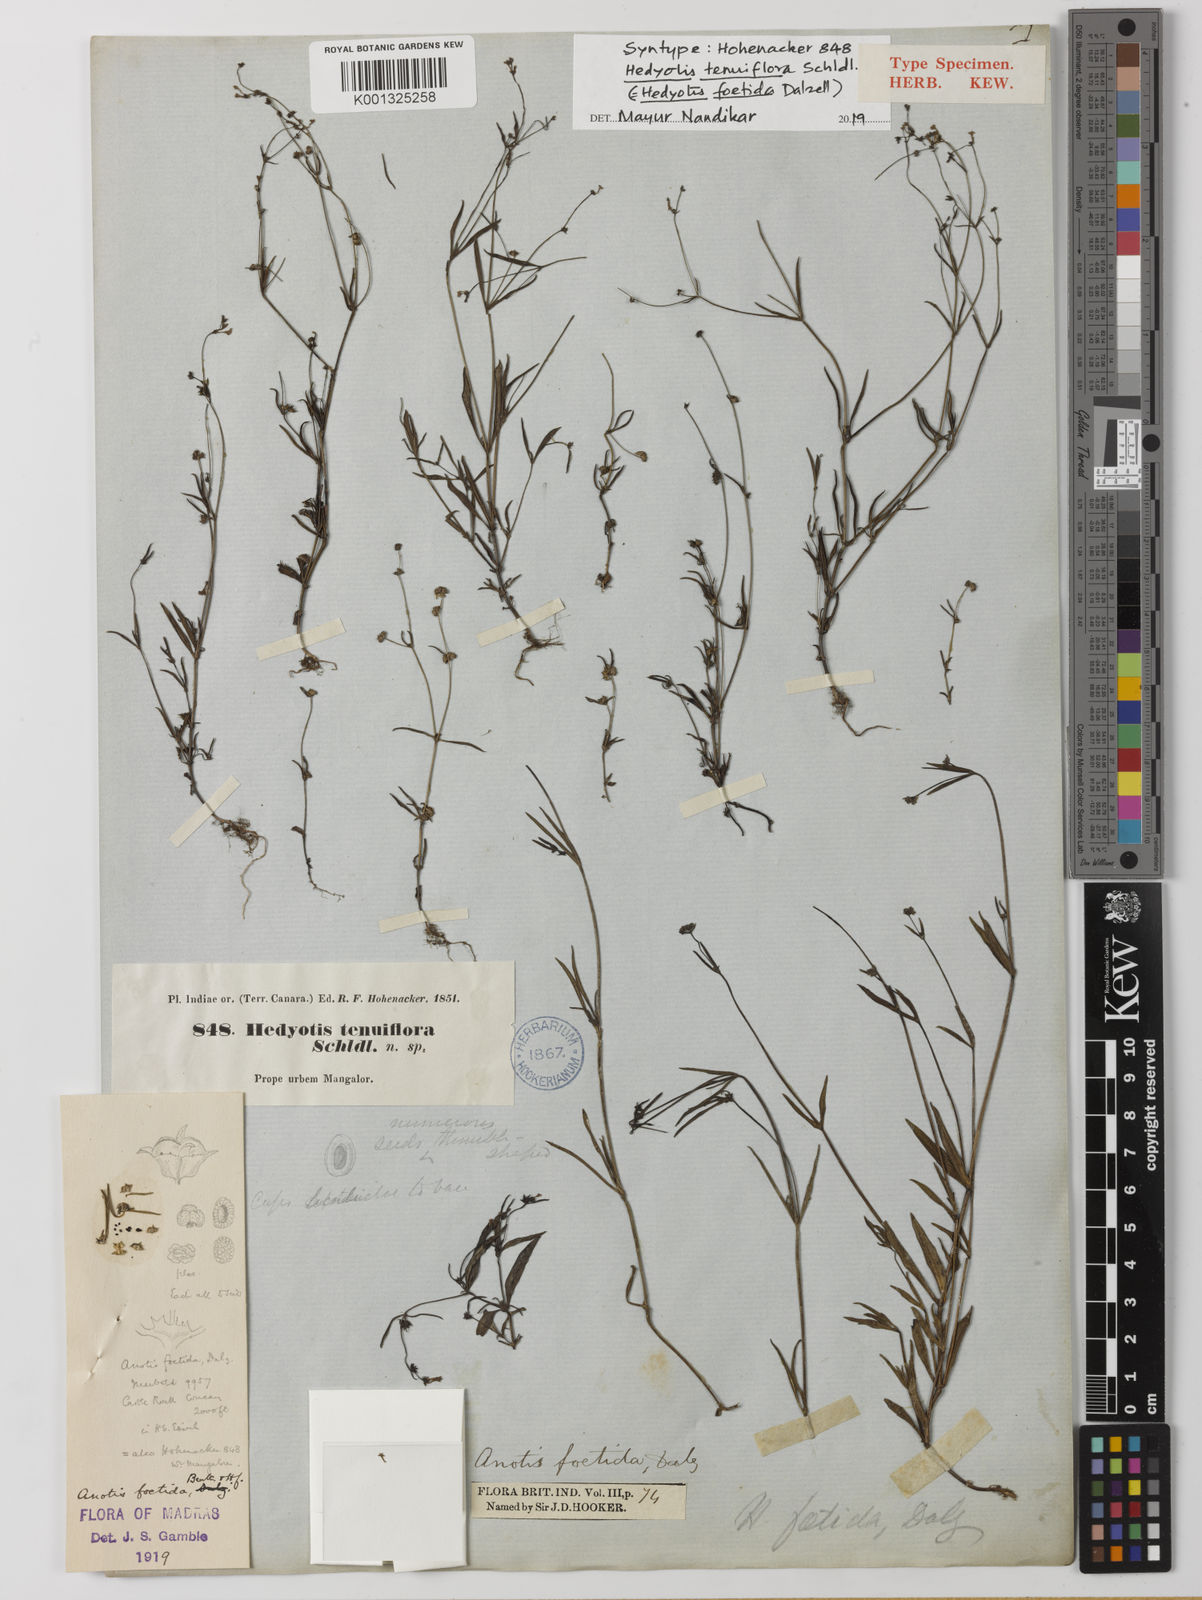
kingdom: Plantae
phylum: Tracheophyta
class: Magnoliopsida
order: Gentianales
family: Rubiaceae
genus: Neanotis
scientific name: Neanotis subtilis
